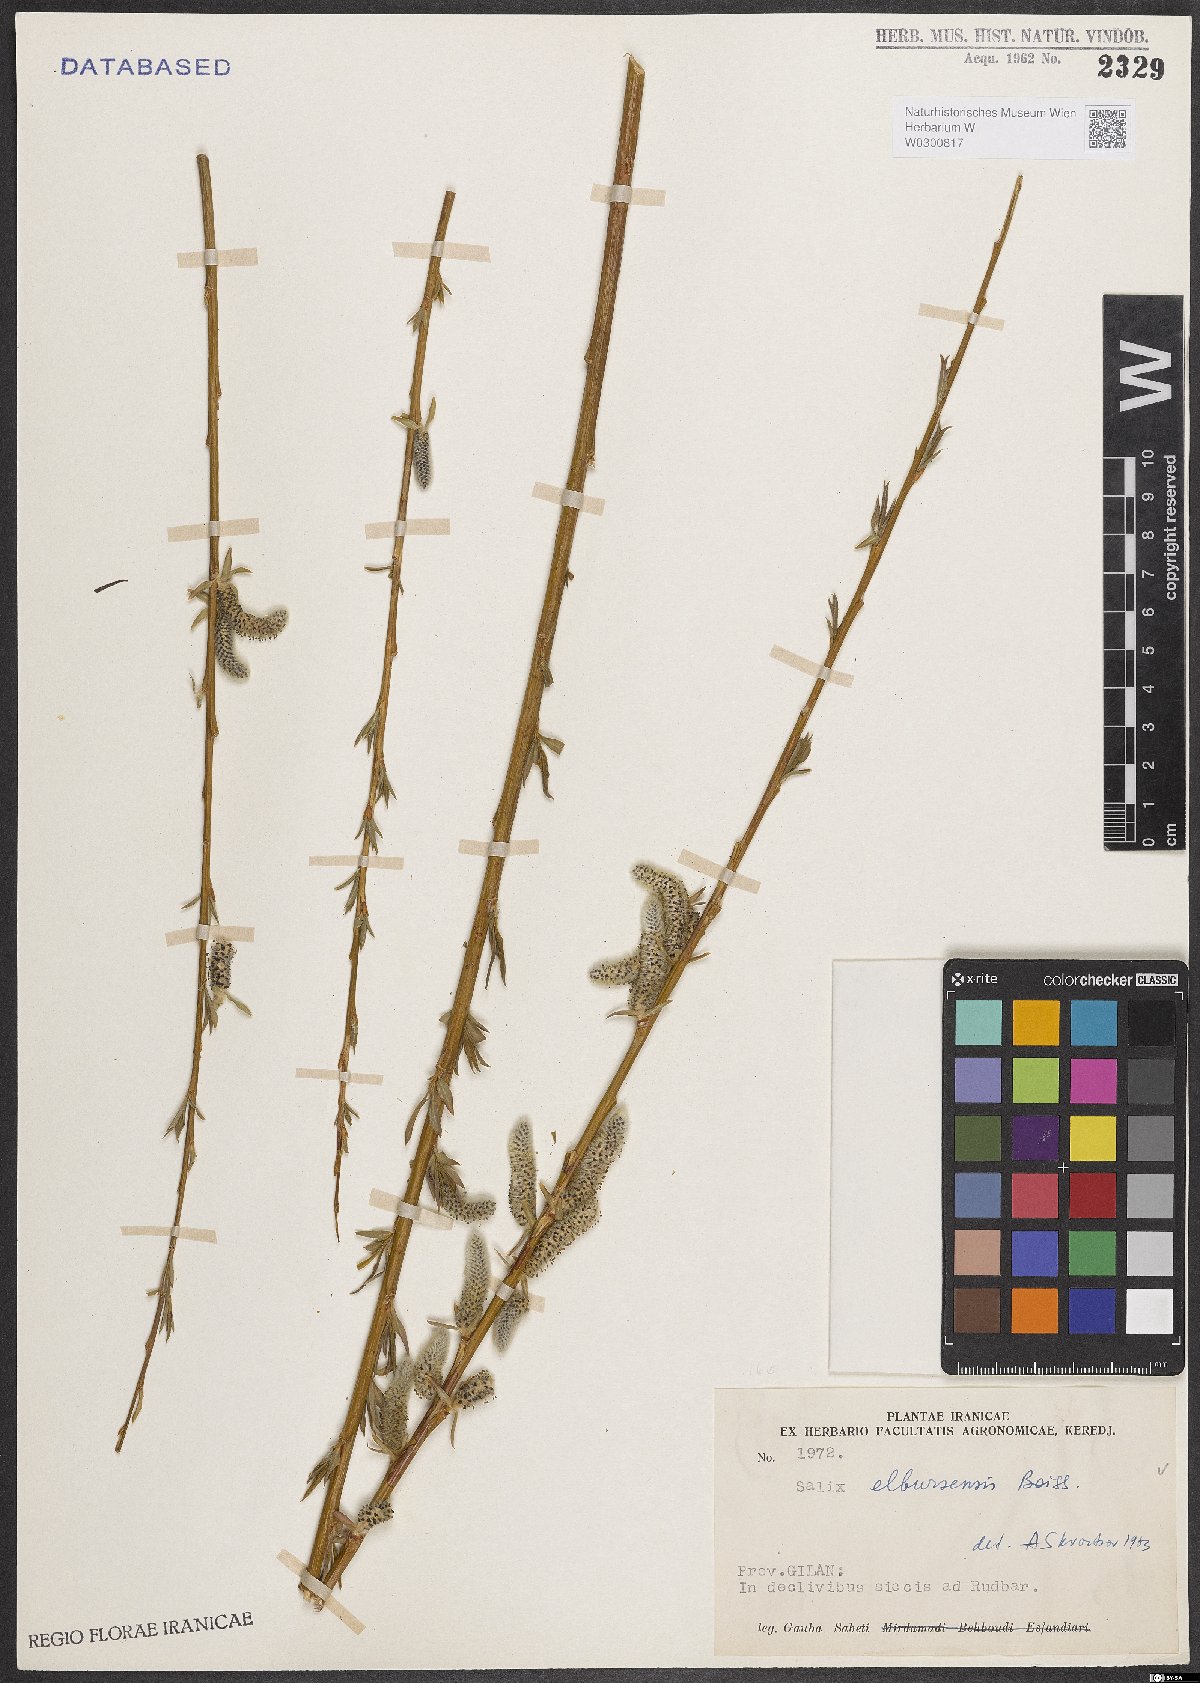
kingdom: Plantae
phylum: Tracheophyta
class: Magnoliopsida
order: Malpighiales
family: Salicaceae
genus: Salix
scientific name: Salix elbursensis
